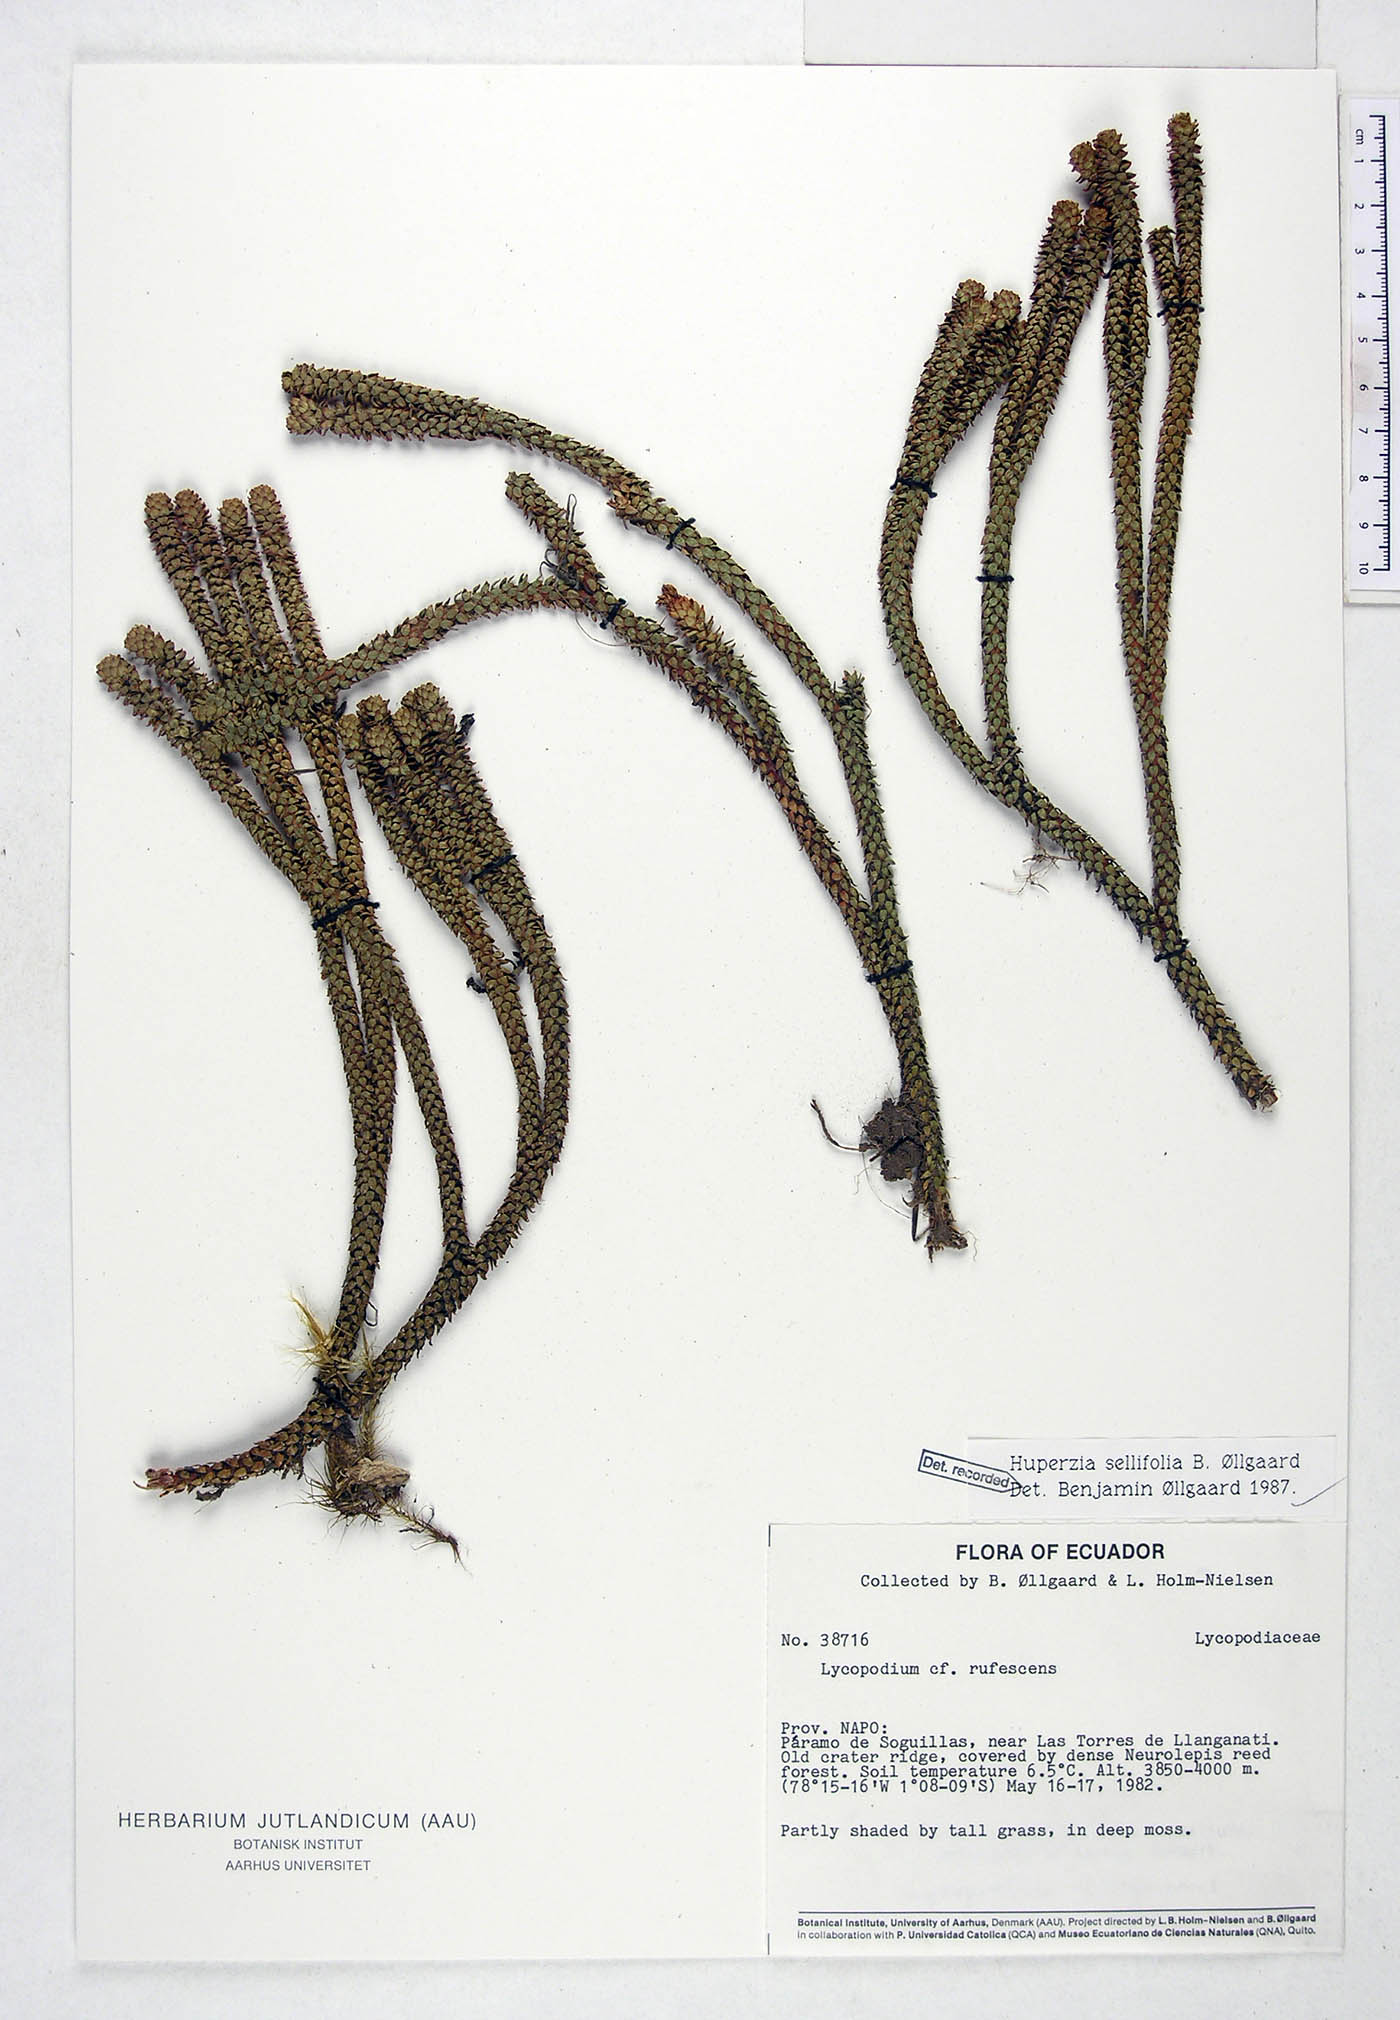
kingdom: Plantae
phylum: Tracheophyta
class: Lycopodiopsida
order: Lycopodiales
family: Lycopodiaceae
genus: Phlegmariurus
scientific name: Phlegmariurus sellifolius
